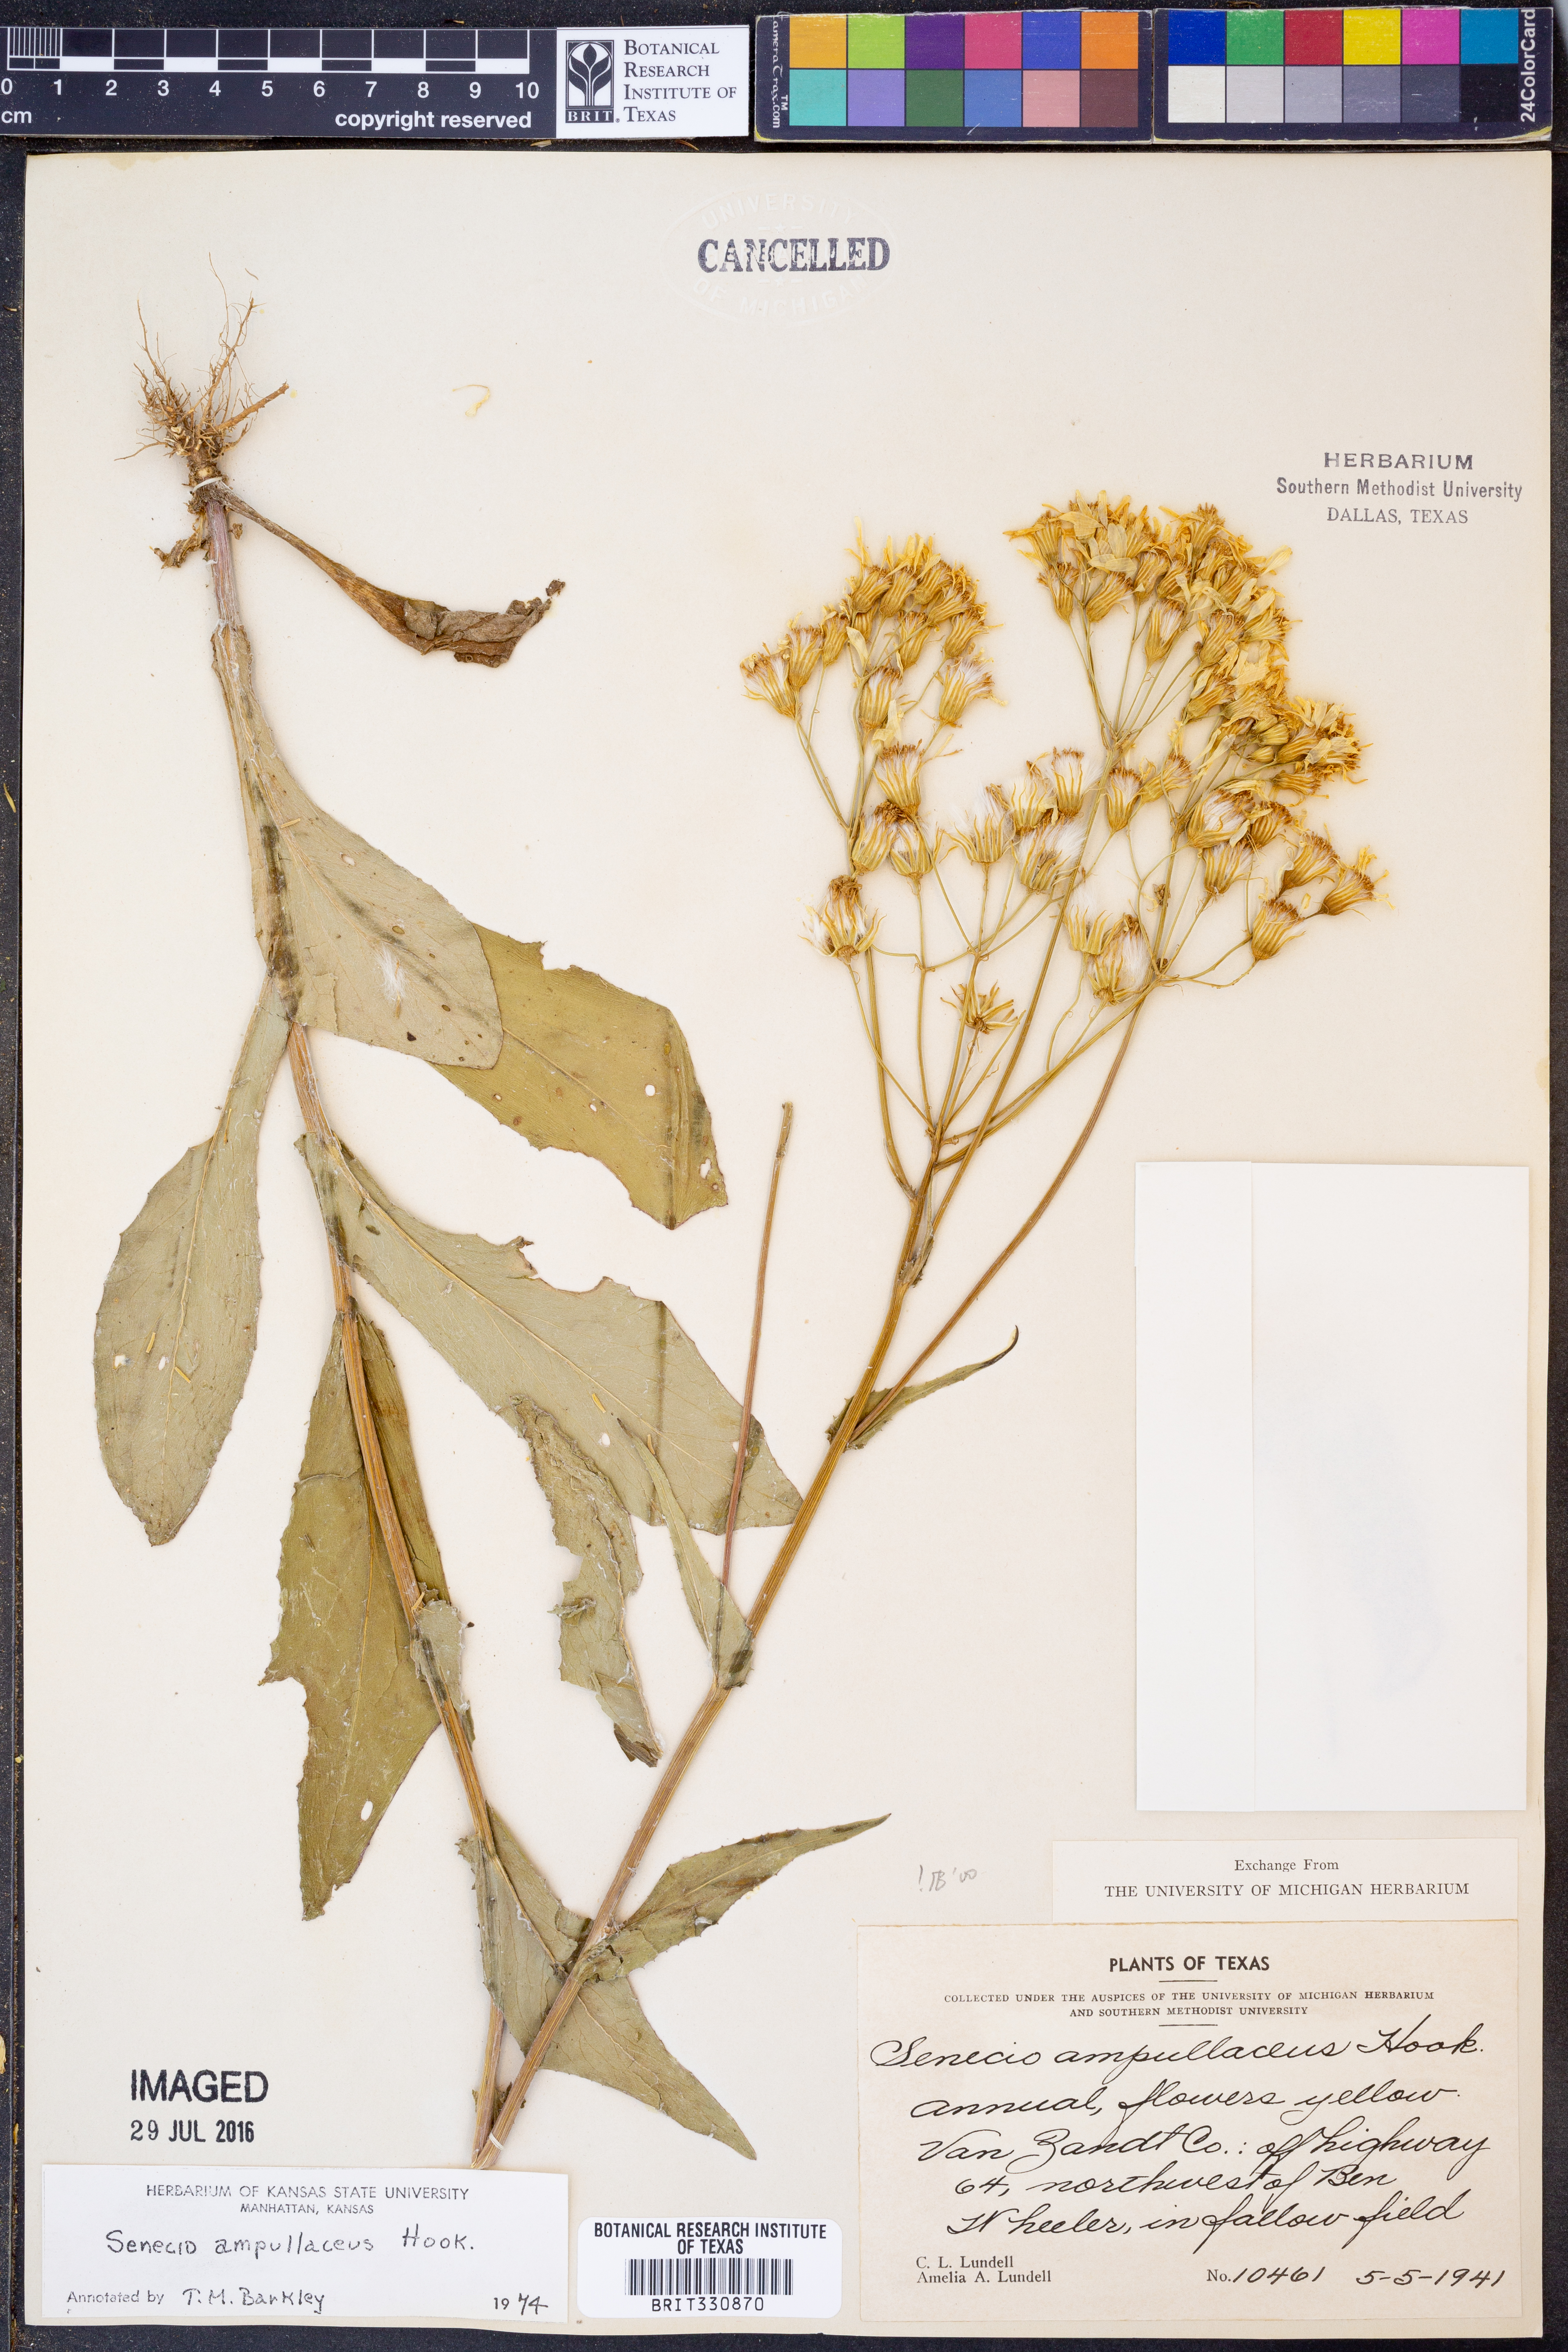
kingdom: Plantae
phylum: Tracheophyta
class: Magnoliopsida
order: Asterales
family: Asteraceae
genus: Senecio
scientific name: Senecio ampullaceus
